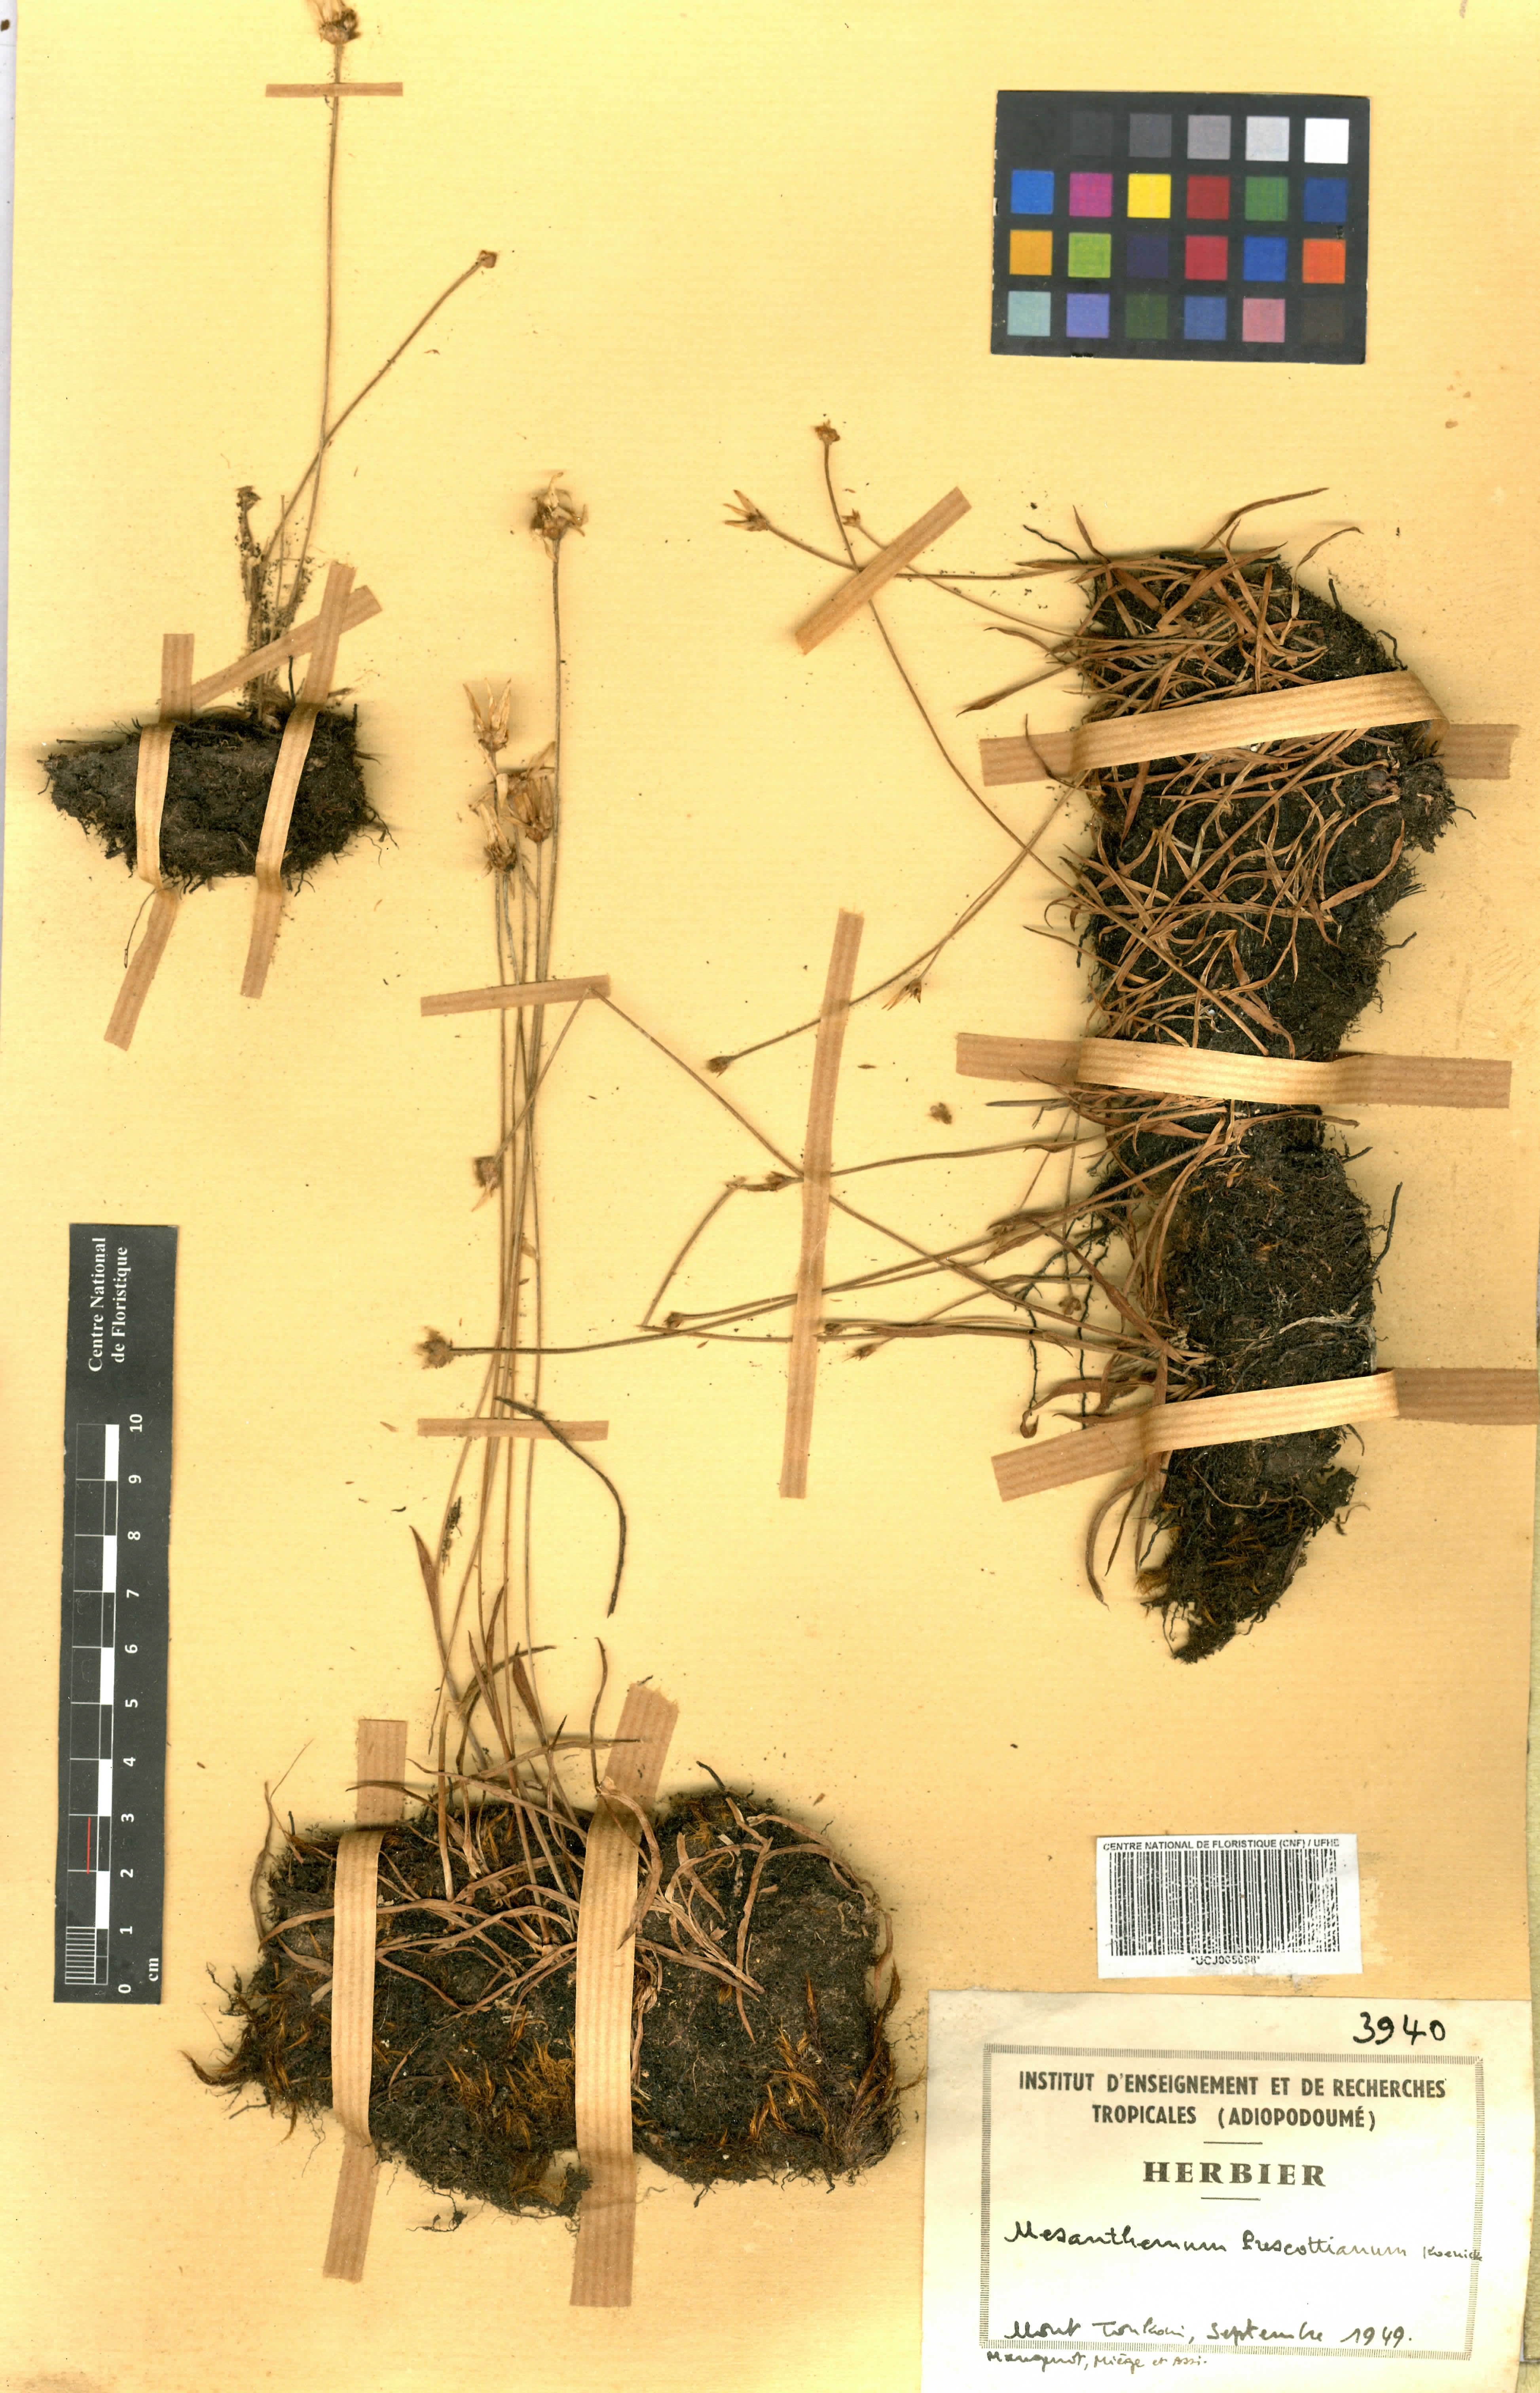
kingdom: Plantae
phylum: Tracheophyta
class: Liliopsida
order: Poales
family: Eriocaulaceae
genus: Mesanthemum
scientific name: Mesanthemum prescottianum
